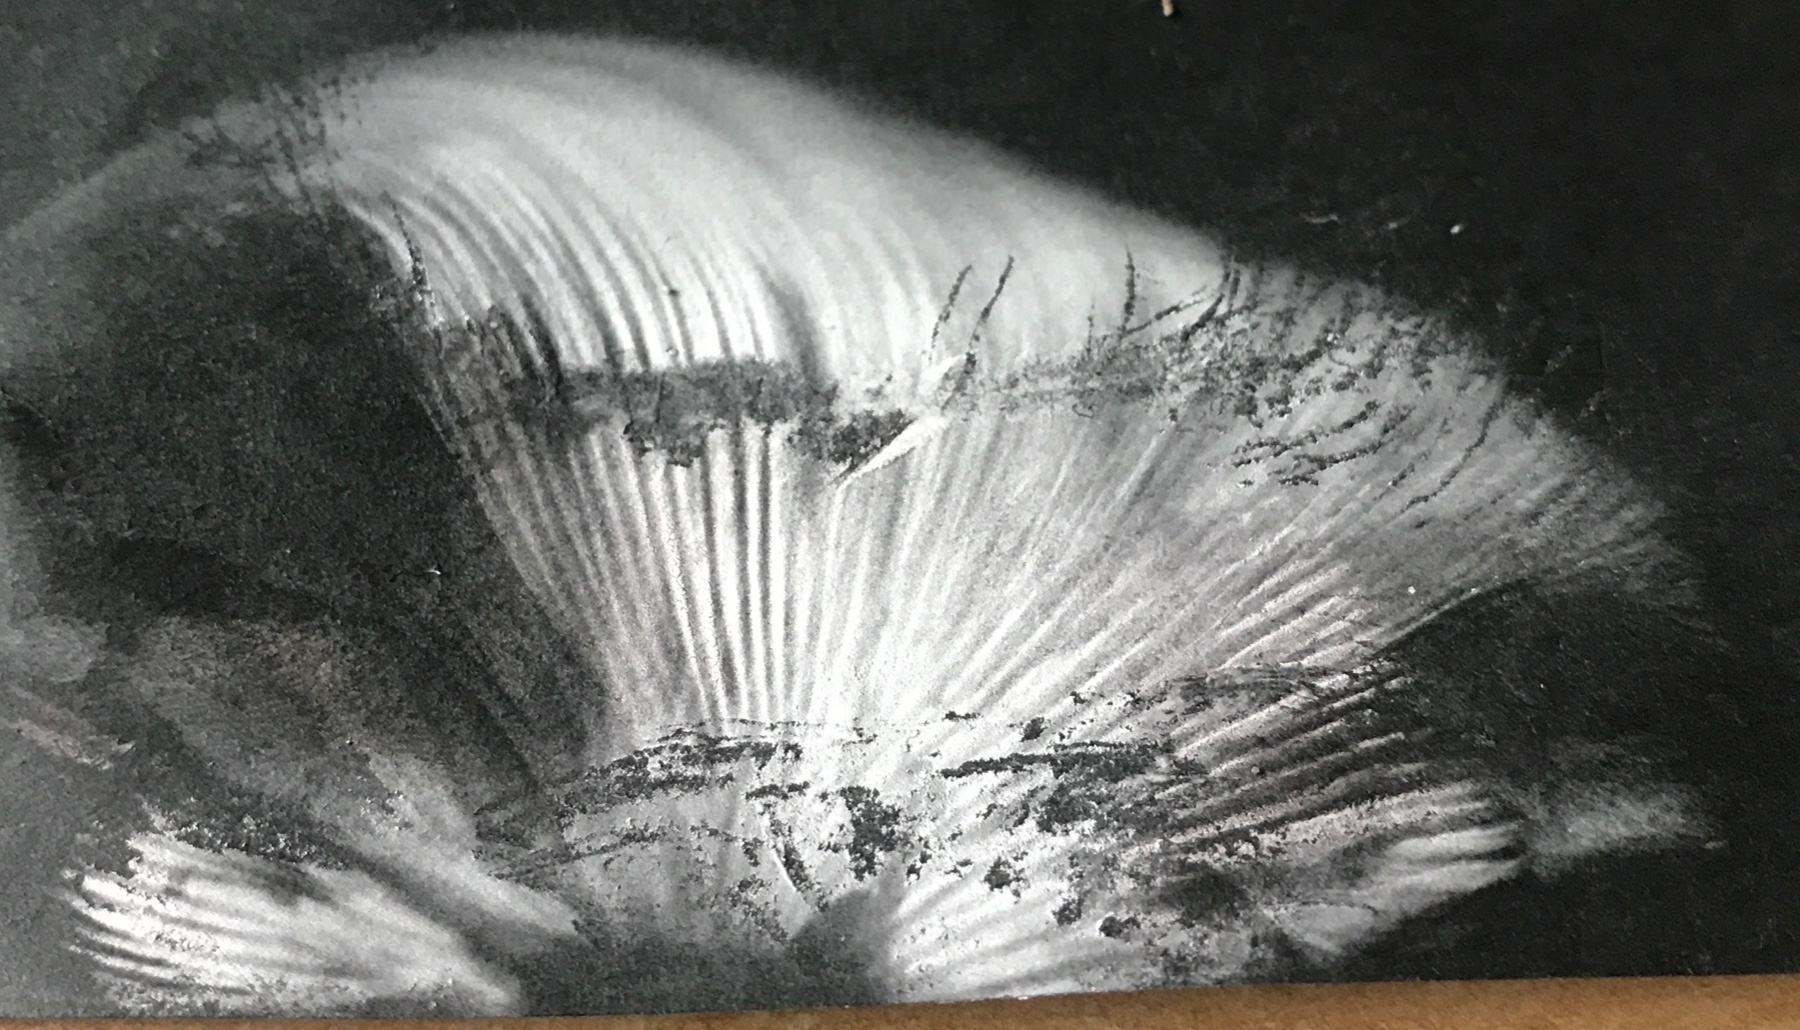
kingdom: Fungi
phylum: Basidiomycota
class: Agaricomycetes
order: Agaricales
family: Agaricaceae
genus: Macrolepiota
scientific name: Macrolepiota excoriata
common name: mark-kæmpeparasolhat
